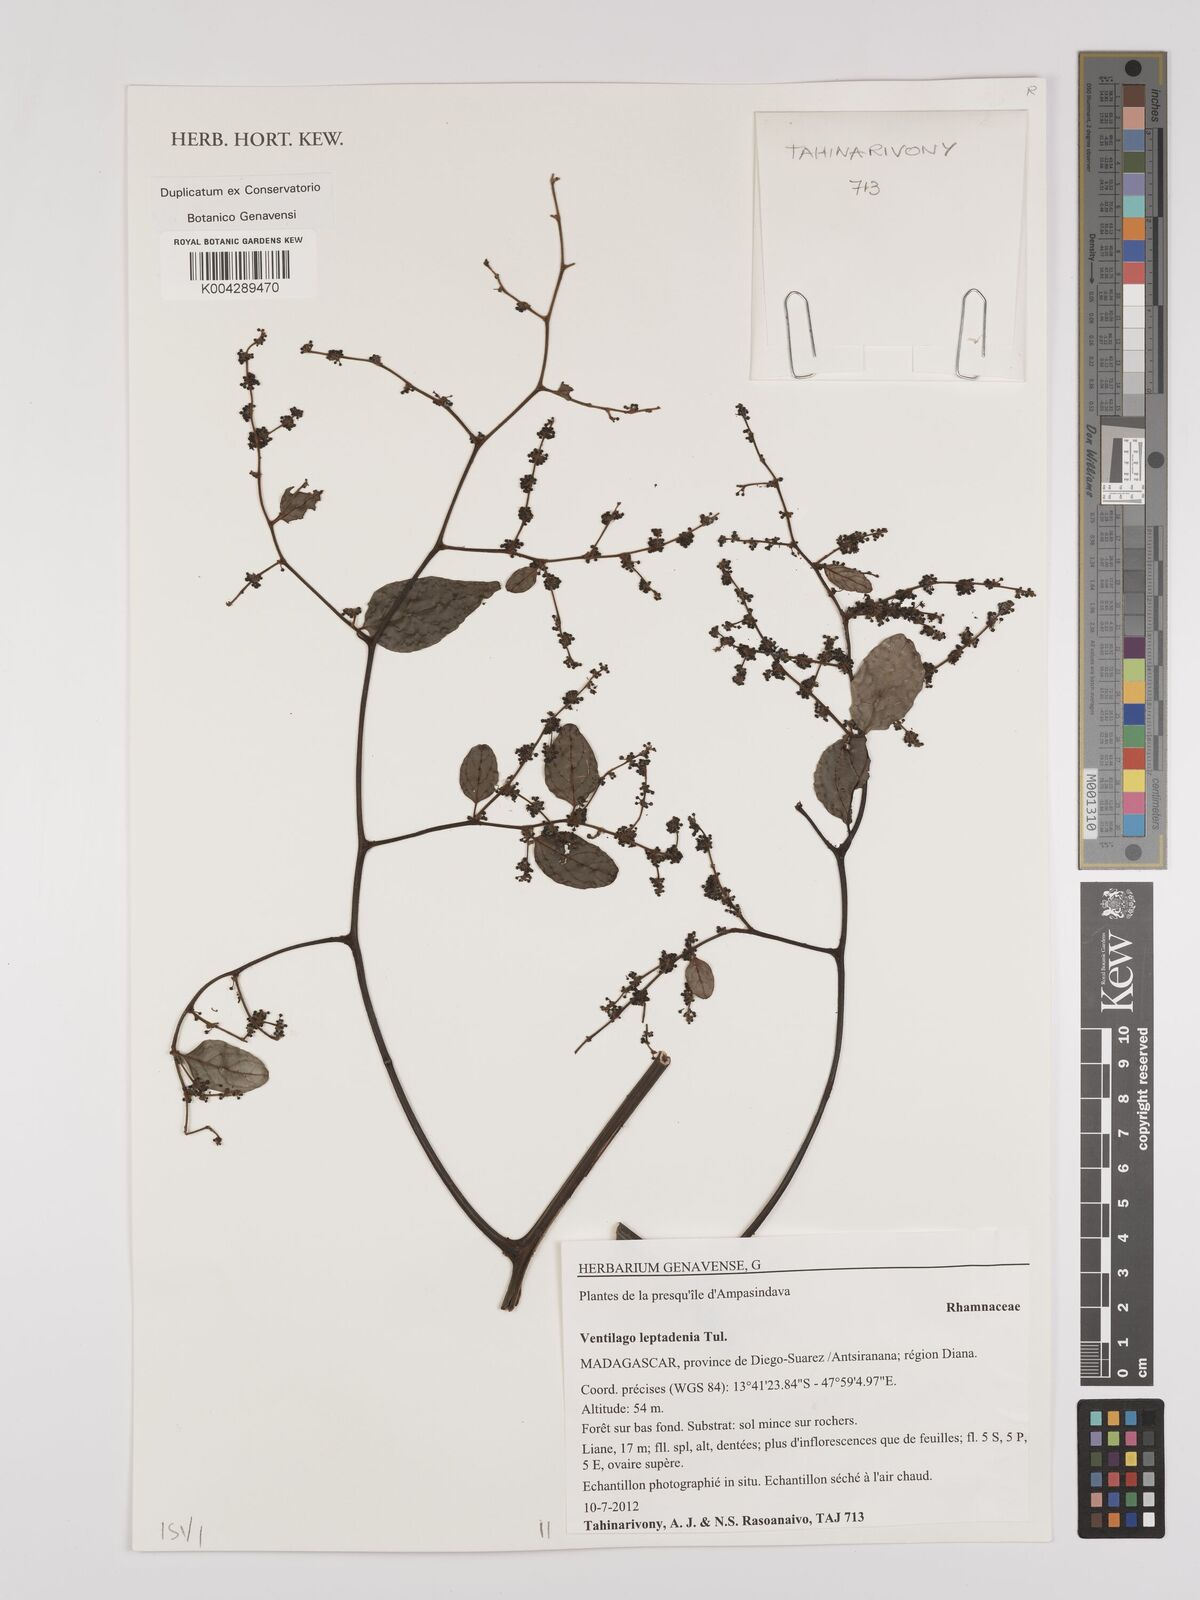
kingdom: Plantae
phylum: Tracheophyta
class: Magnoliopsida
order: Rosales
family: Rhamnaceae
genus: Ventilago
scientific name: Ventilago leptadenia
